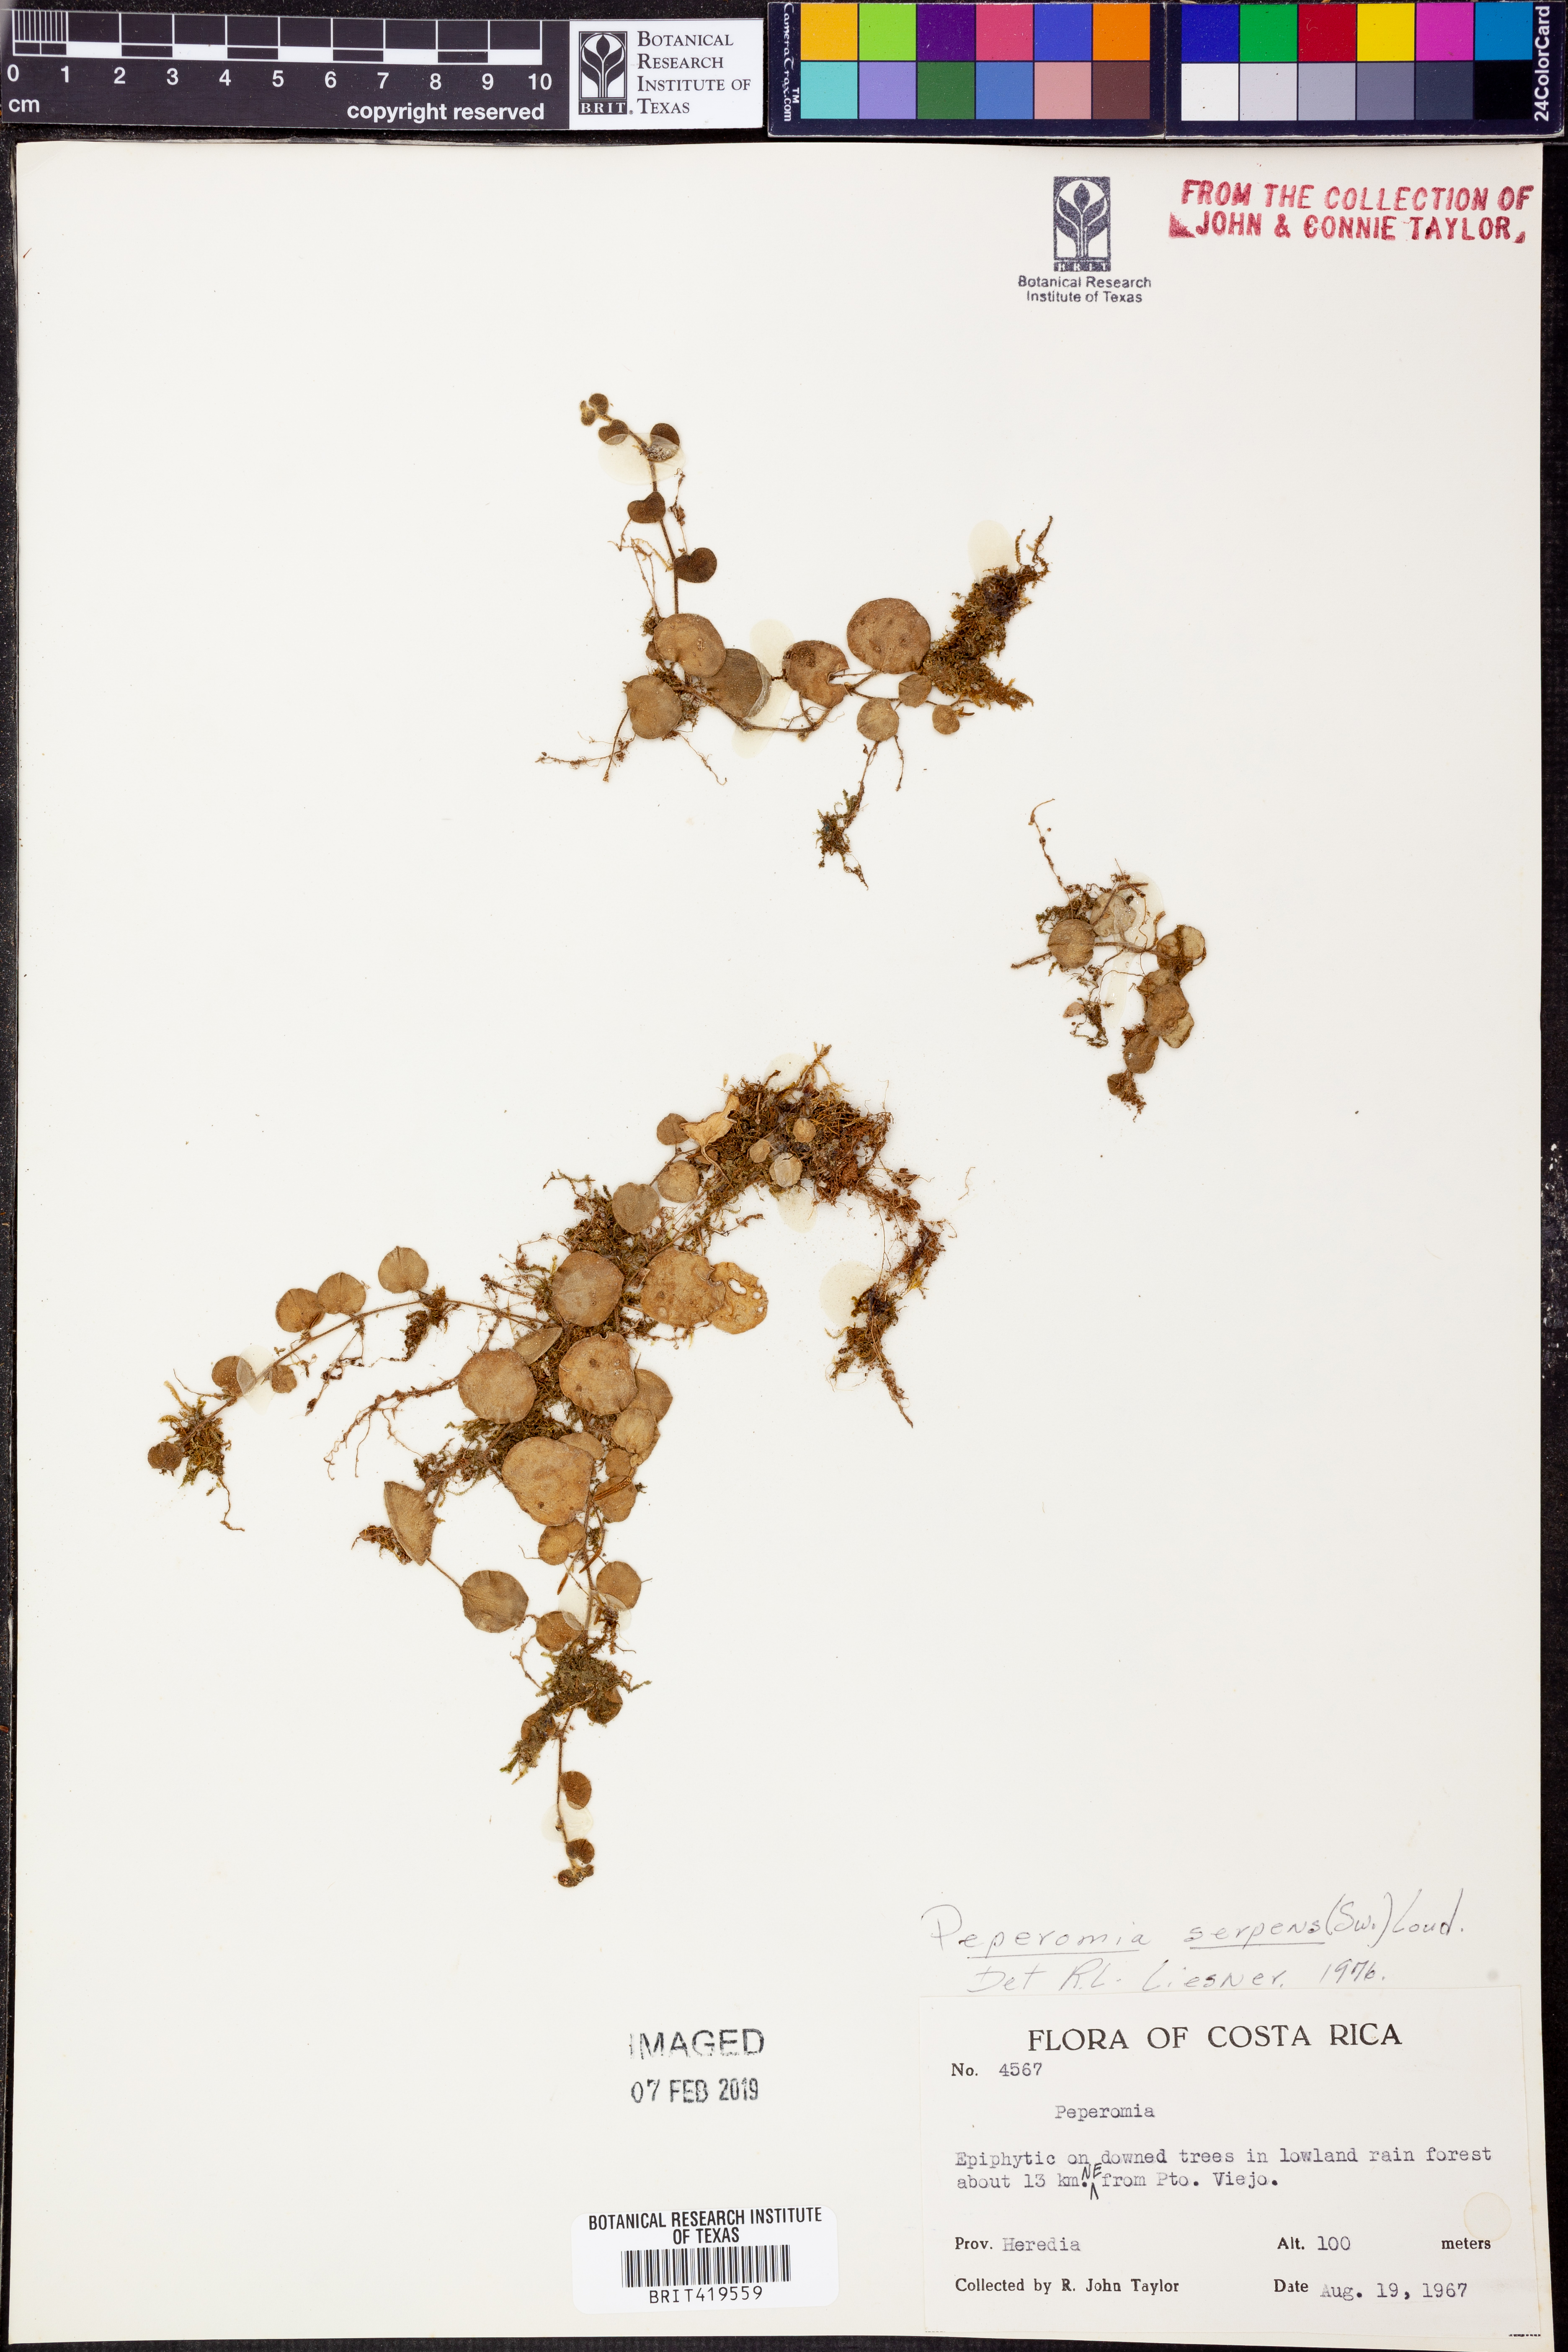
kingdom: Plantae
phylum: Tracheophyta
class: Magnoliopsida
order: Piperales
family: Piperaceae
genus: Peperomia
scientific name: Peperomia serpens
